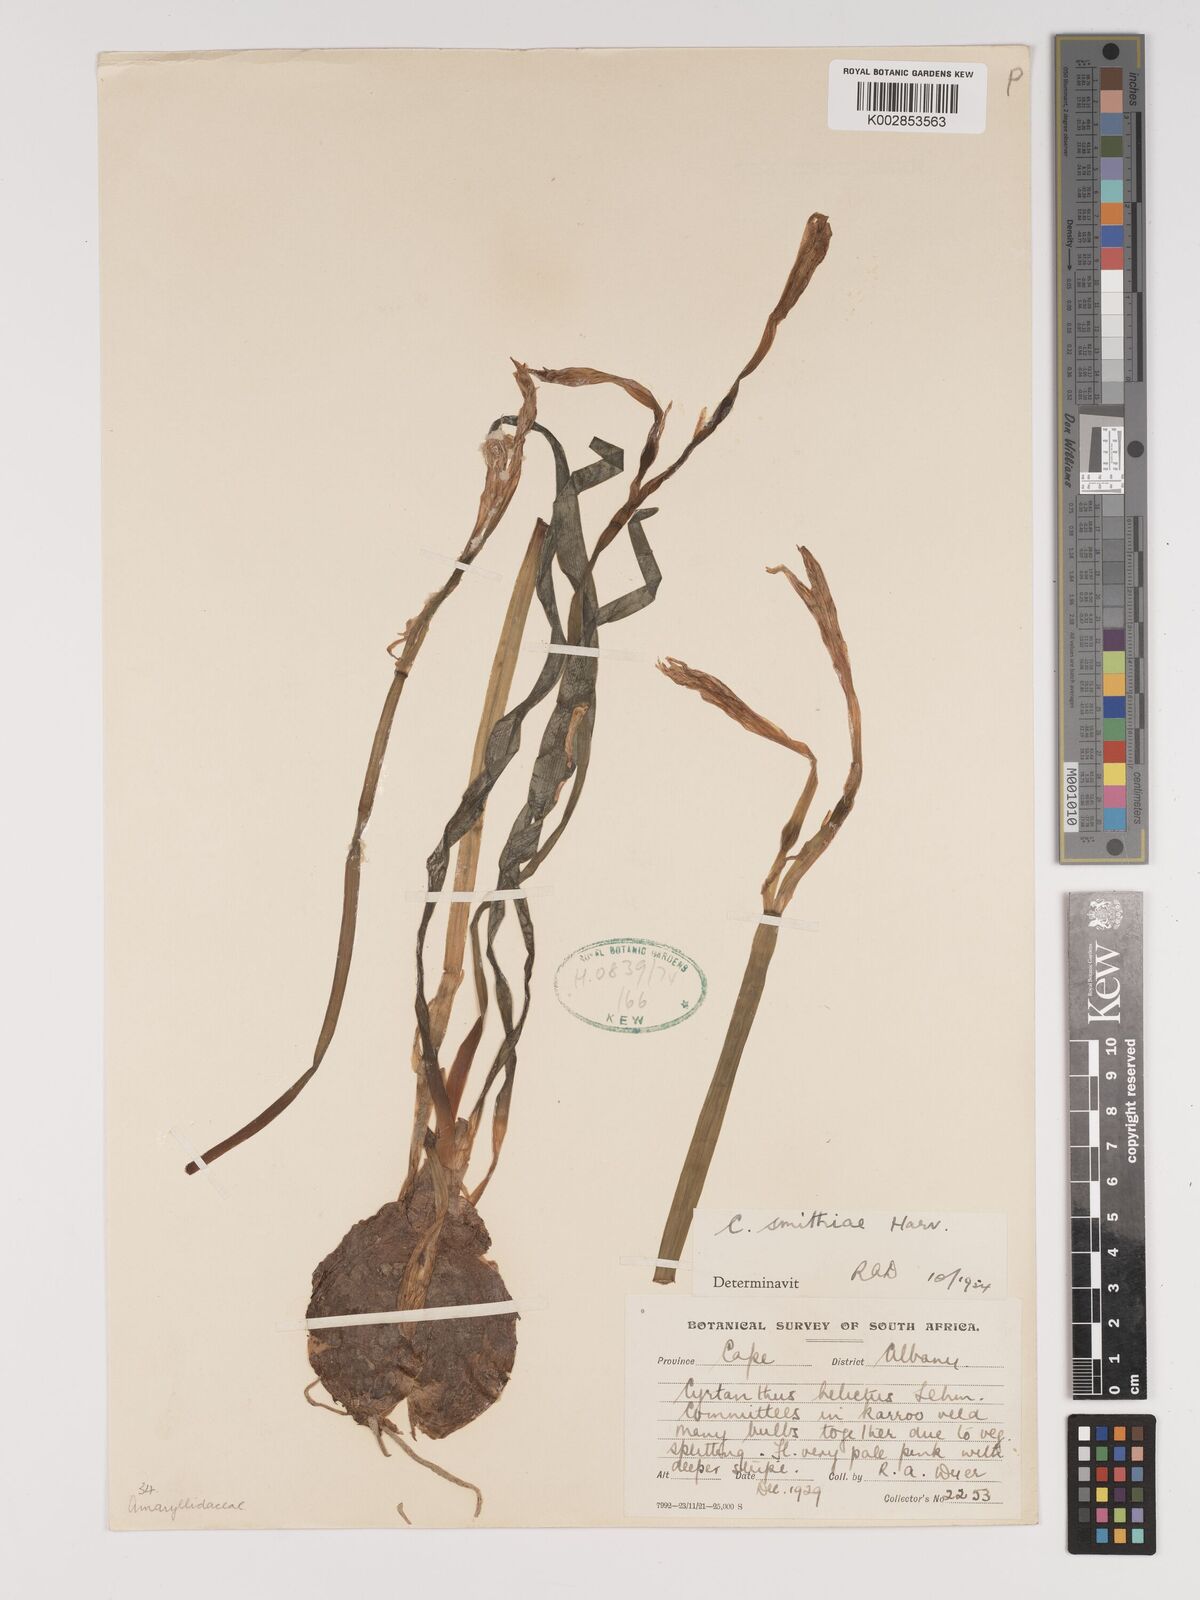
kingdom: Plantae
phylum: Tracheophyta
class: Liliopsida
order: Asparagales
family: Amaryllidaceae
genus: Cyrtanthus
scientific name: Cyrtanthus smithiae
